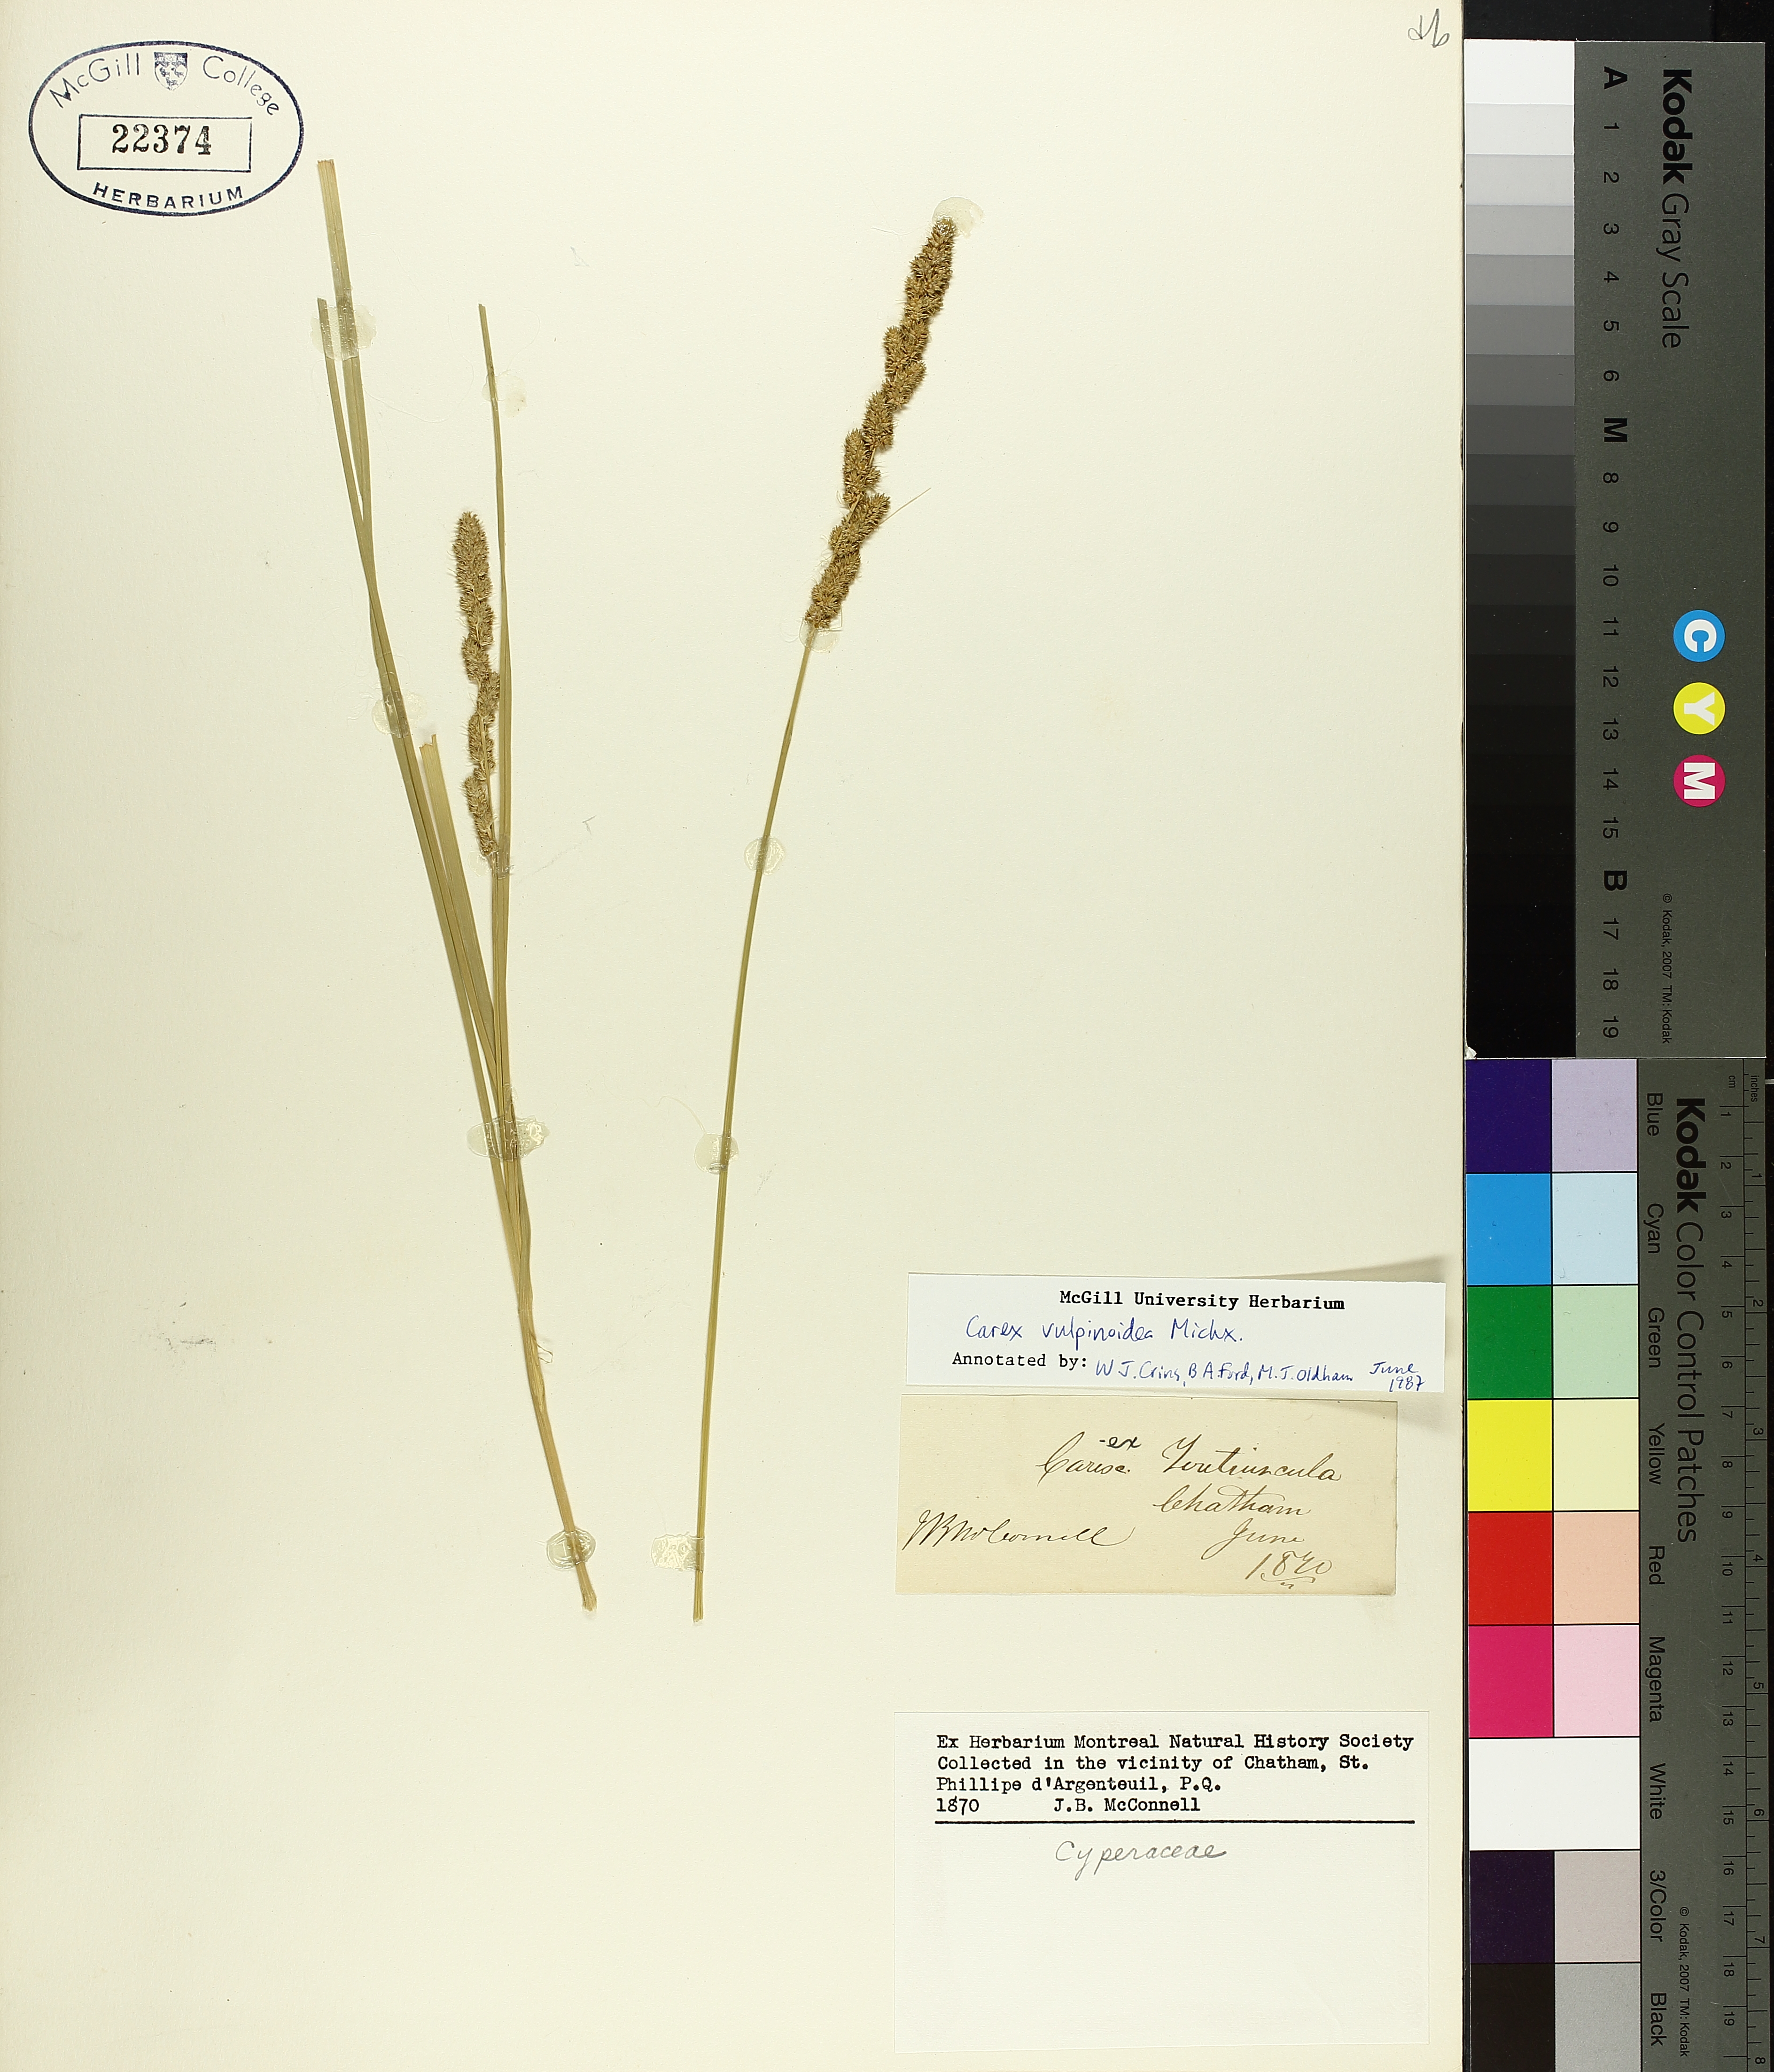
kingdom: Plantae
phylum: Tracheophyta
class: Liliopsida
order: Poales
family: Cyperaceae
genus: Carex
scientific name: Carex vulpinoidea
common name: American fox-sedge
